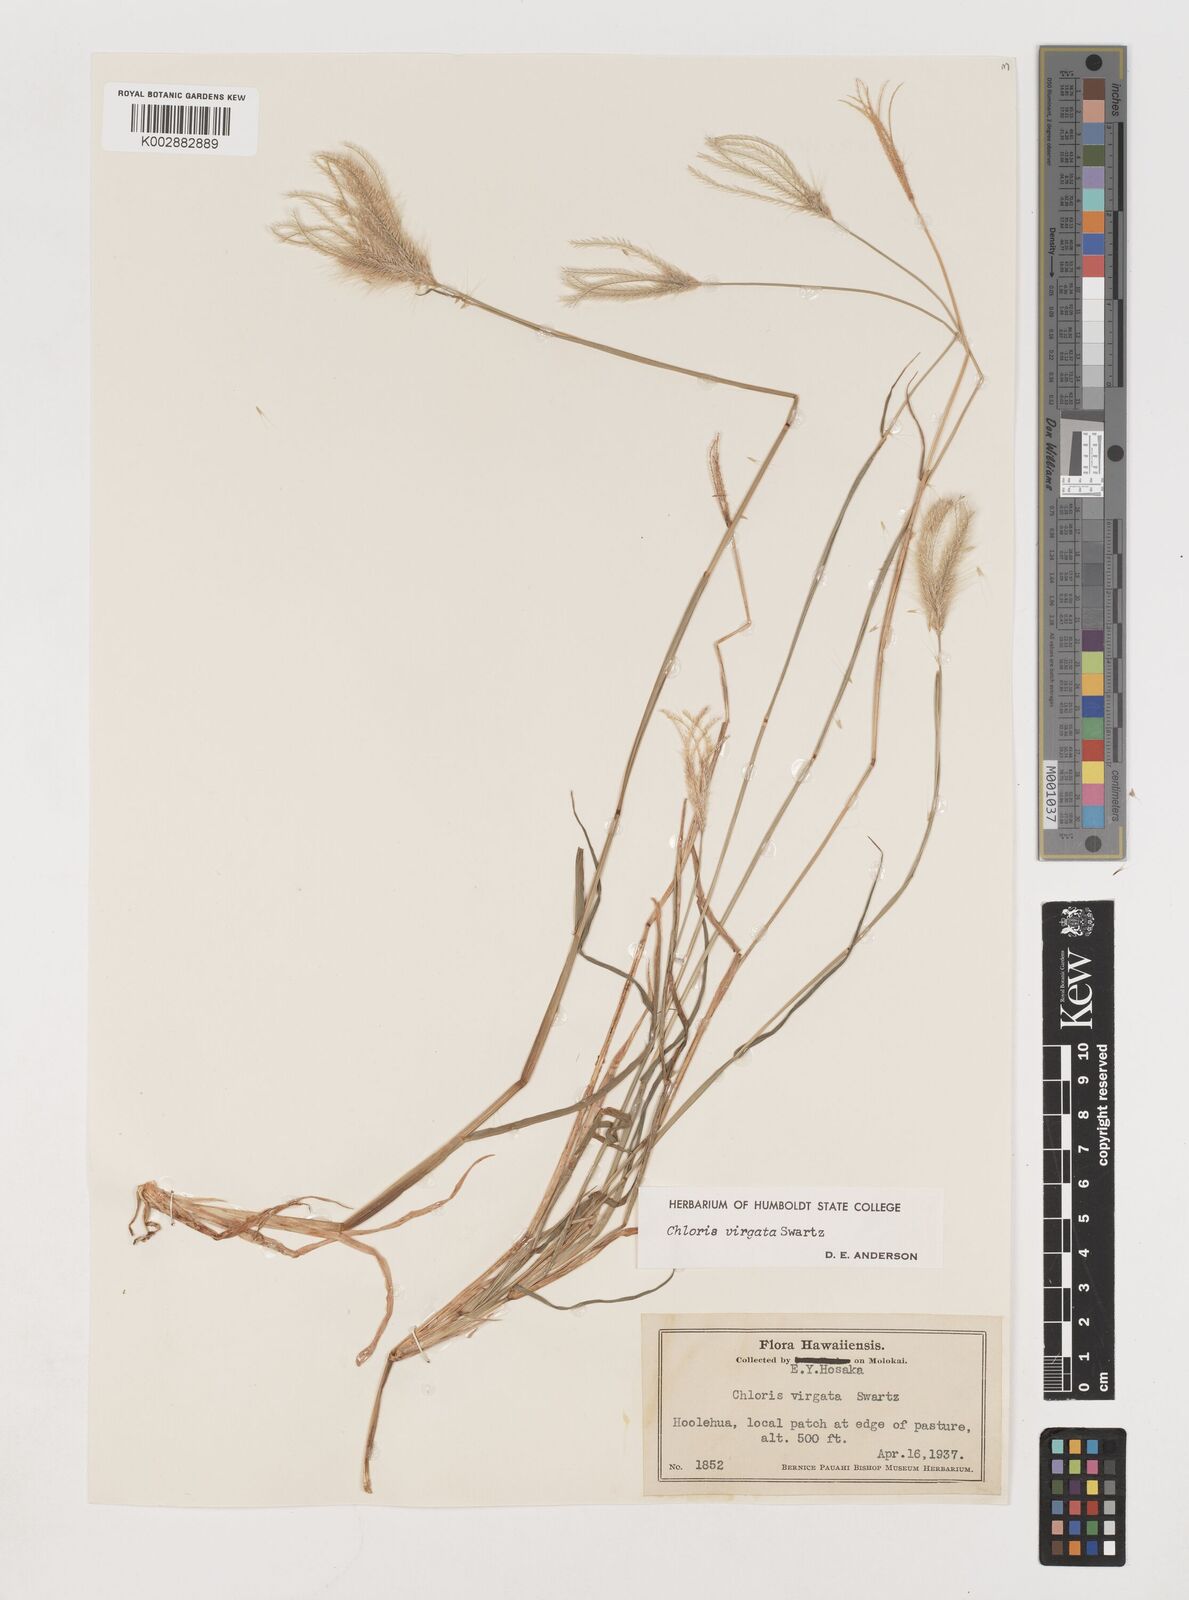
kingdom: Plantae
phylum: Tracheophyta
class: Liliopsida
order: Poales
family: Poaceae
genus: Chloris
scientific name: Chloris virgata
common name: Feathery rhodes-grass
